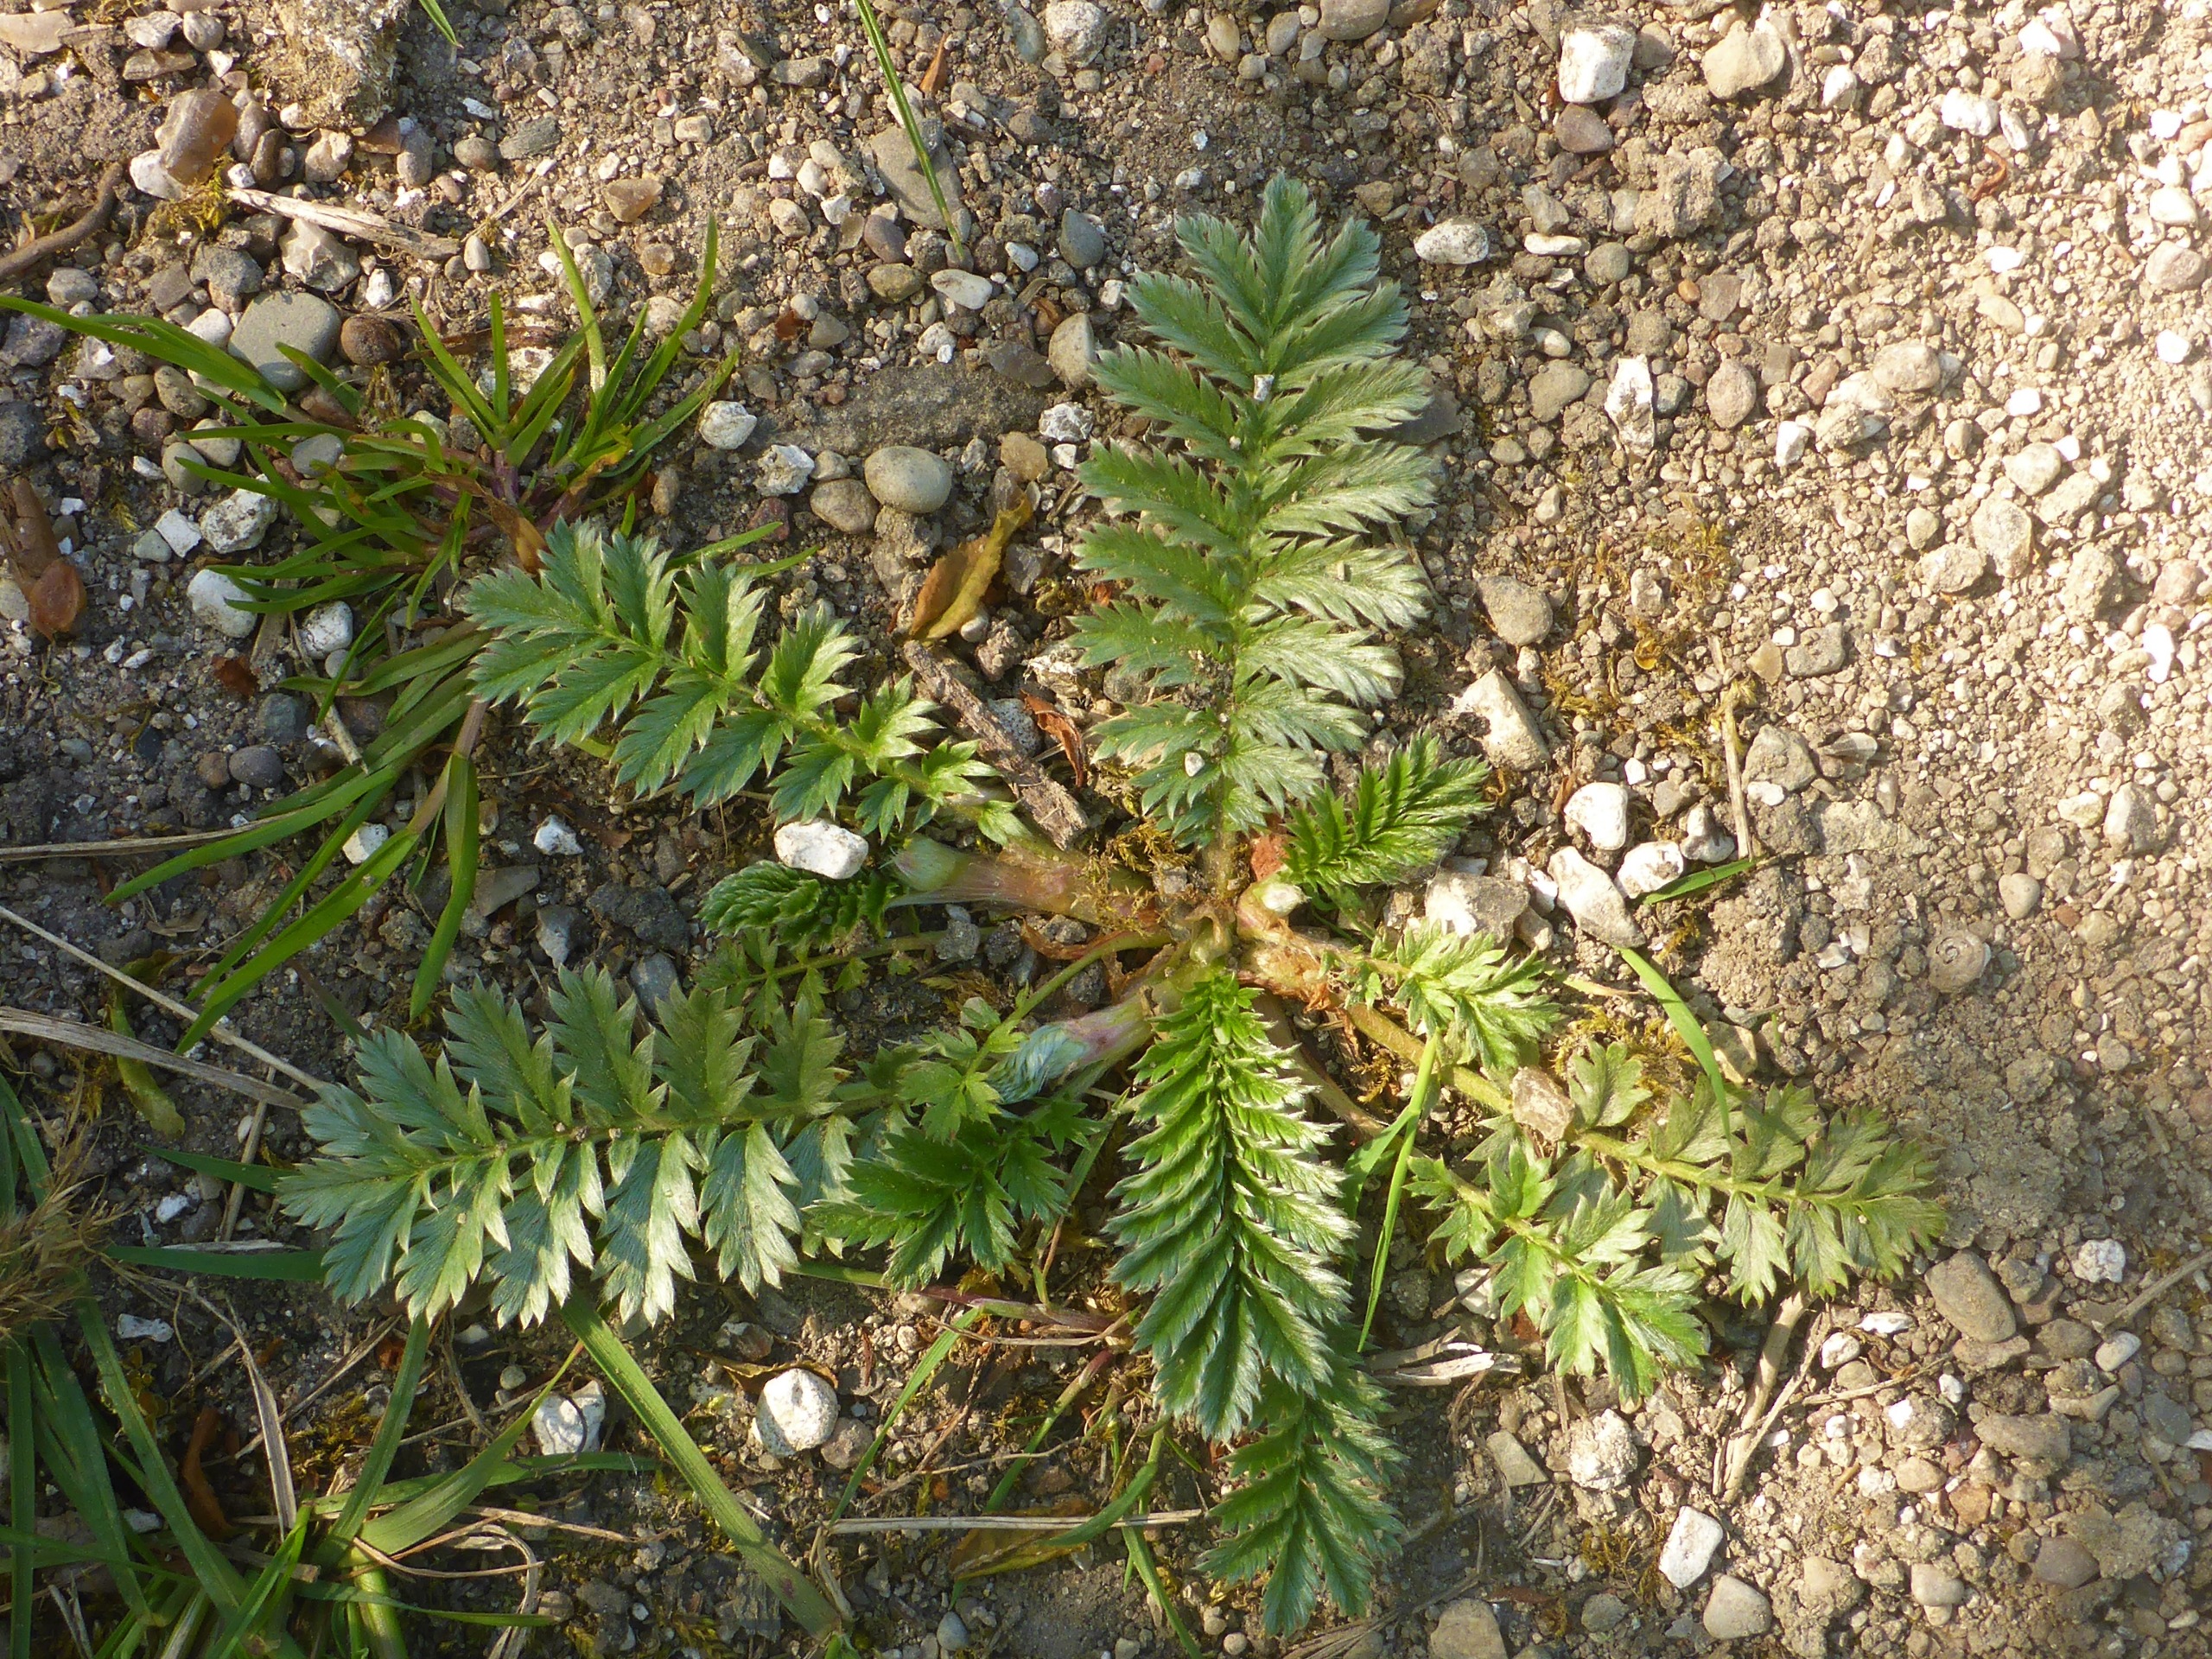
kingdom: Plantae
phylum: Tracheophyta
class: Magnoliopsida
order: Rosales
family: Rosaceae
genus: Argentina
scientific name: Argentina anserina
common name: Gåsepotentil
